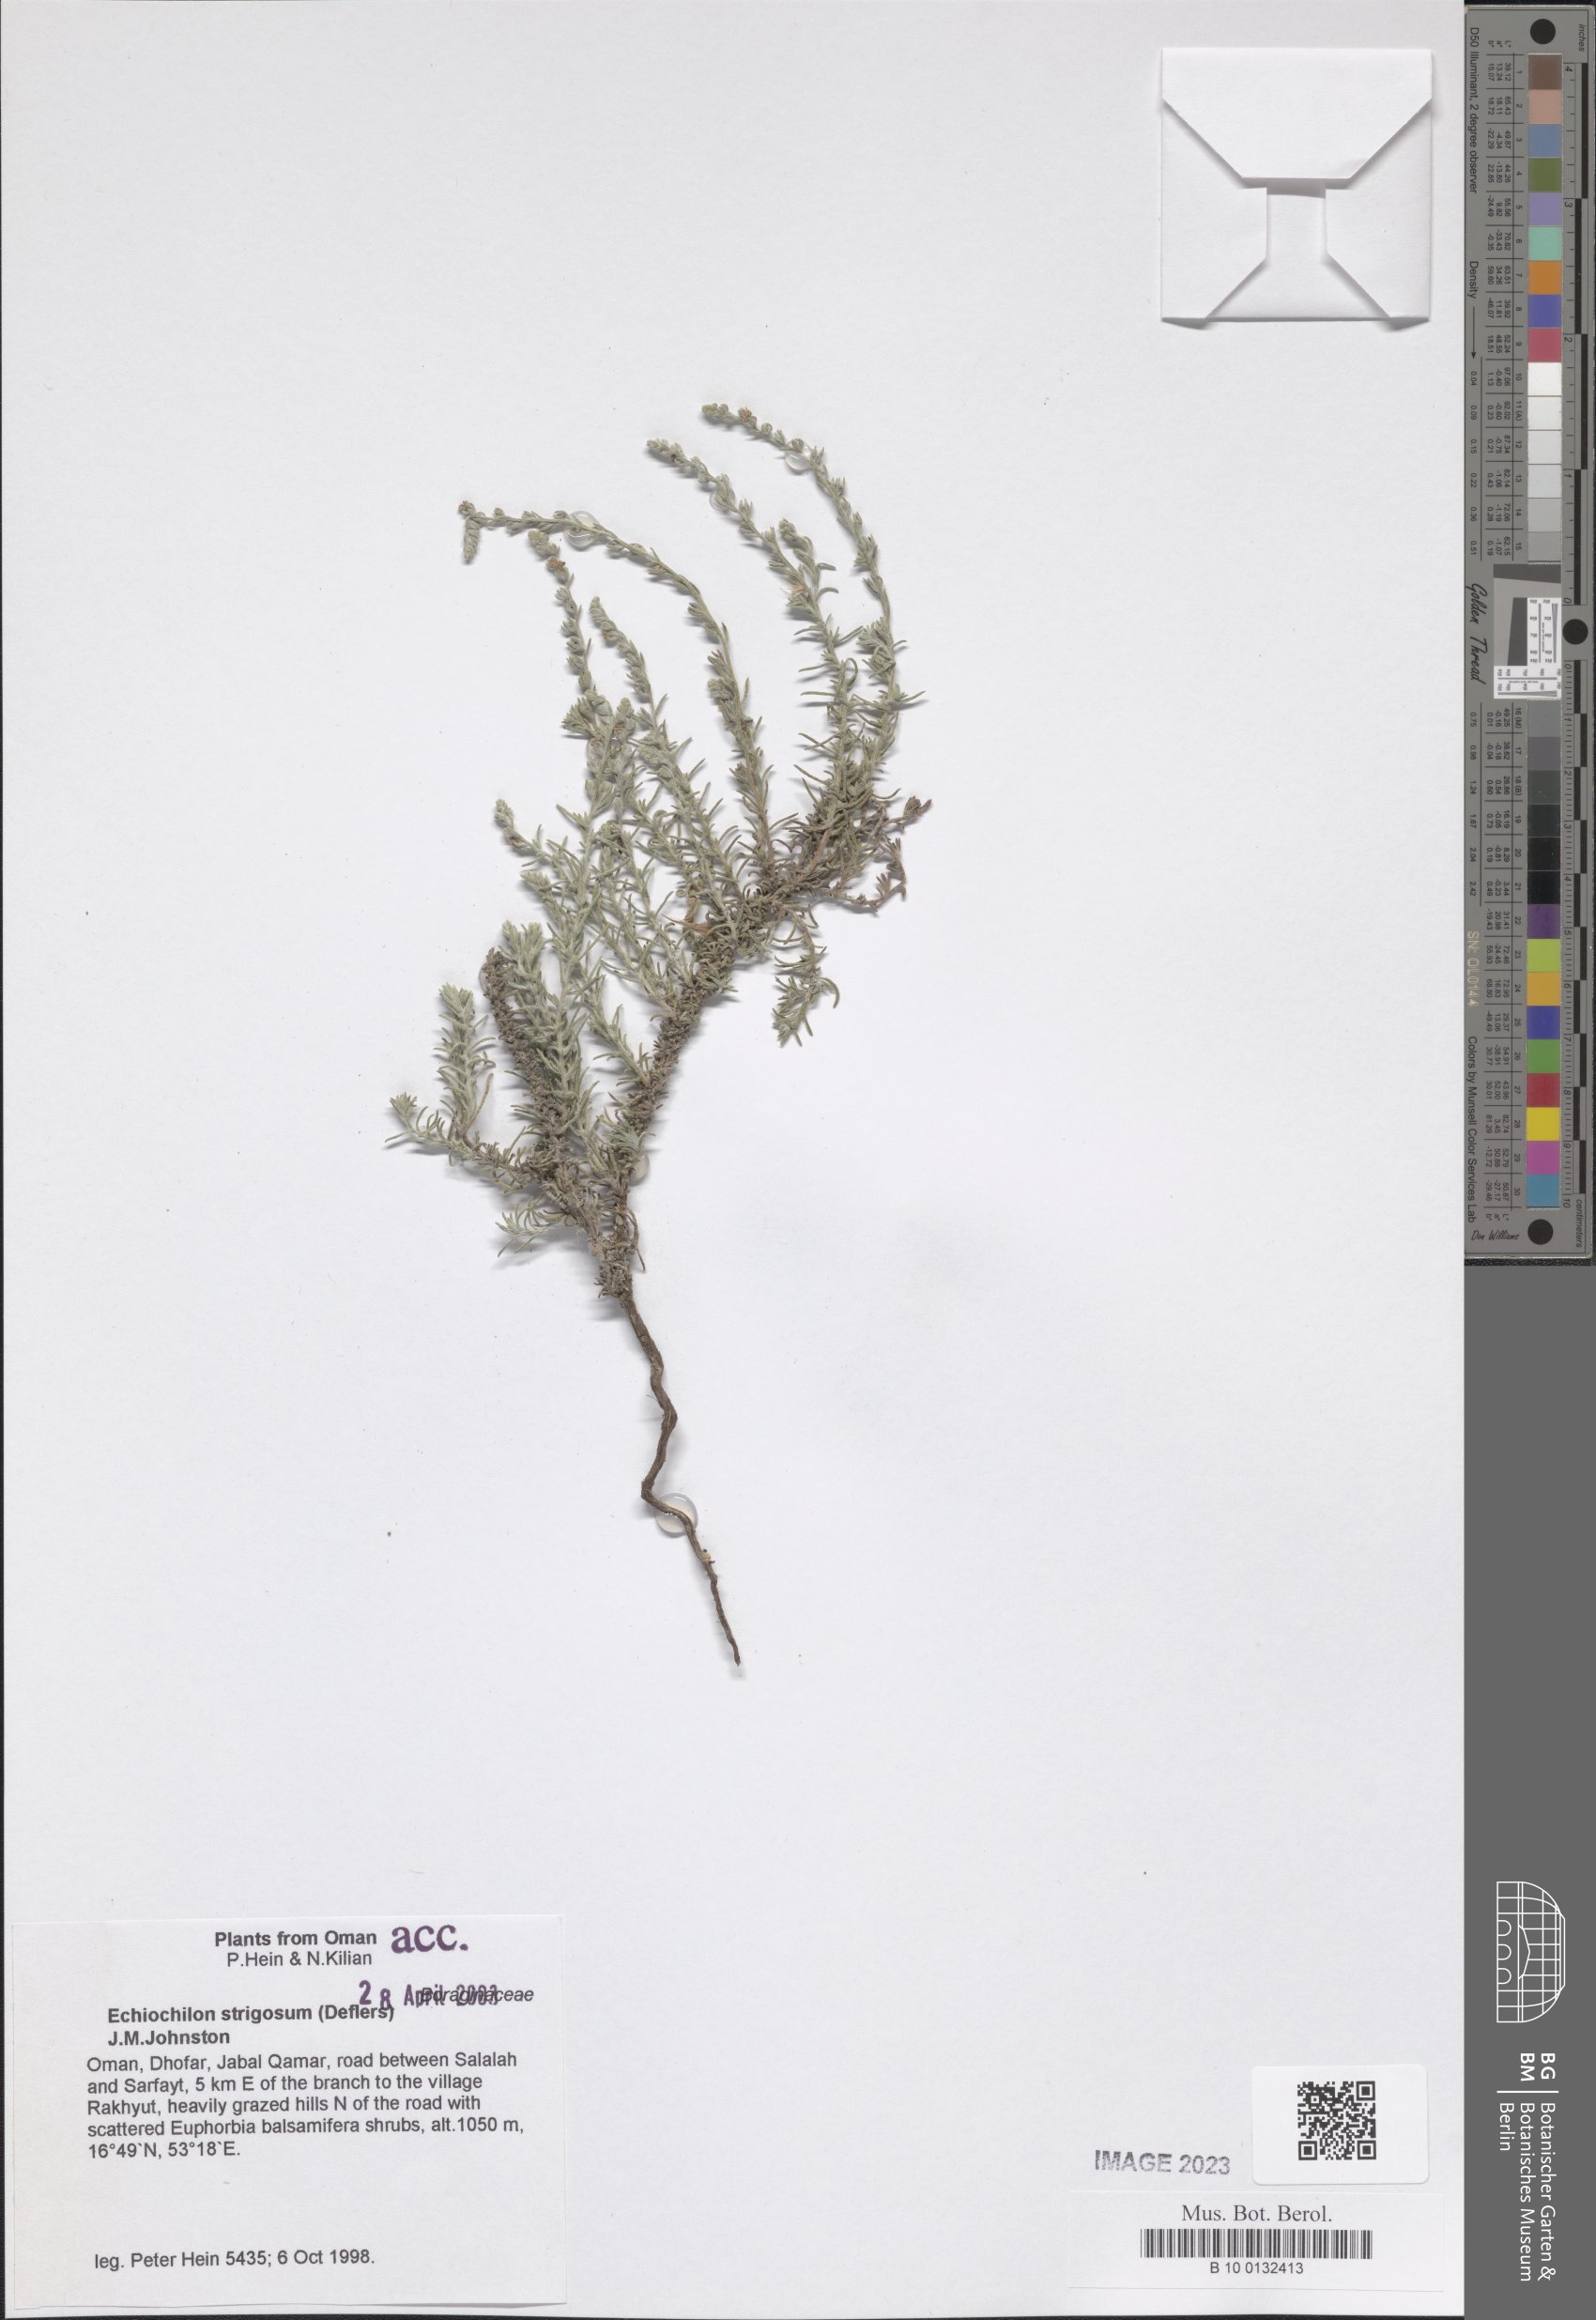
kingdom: Plantae
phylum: Tracheophyta
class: Magnoliopsida
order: Boraginales
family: Boraginaceae
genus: Echiochilon
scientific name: Echiochilon persicum
